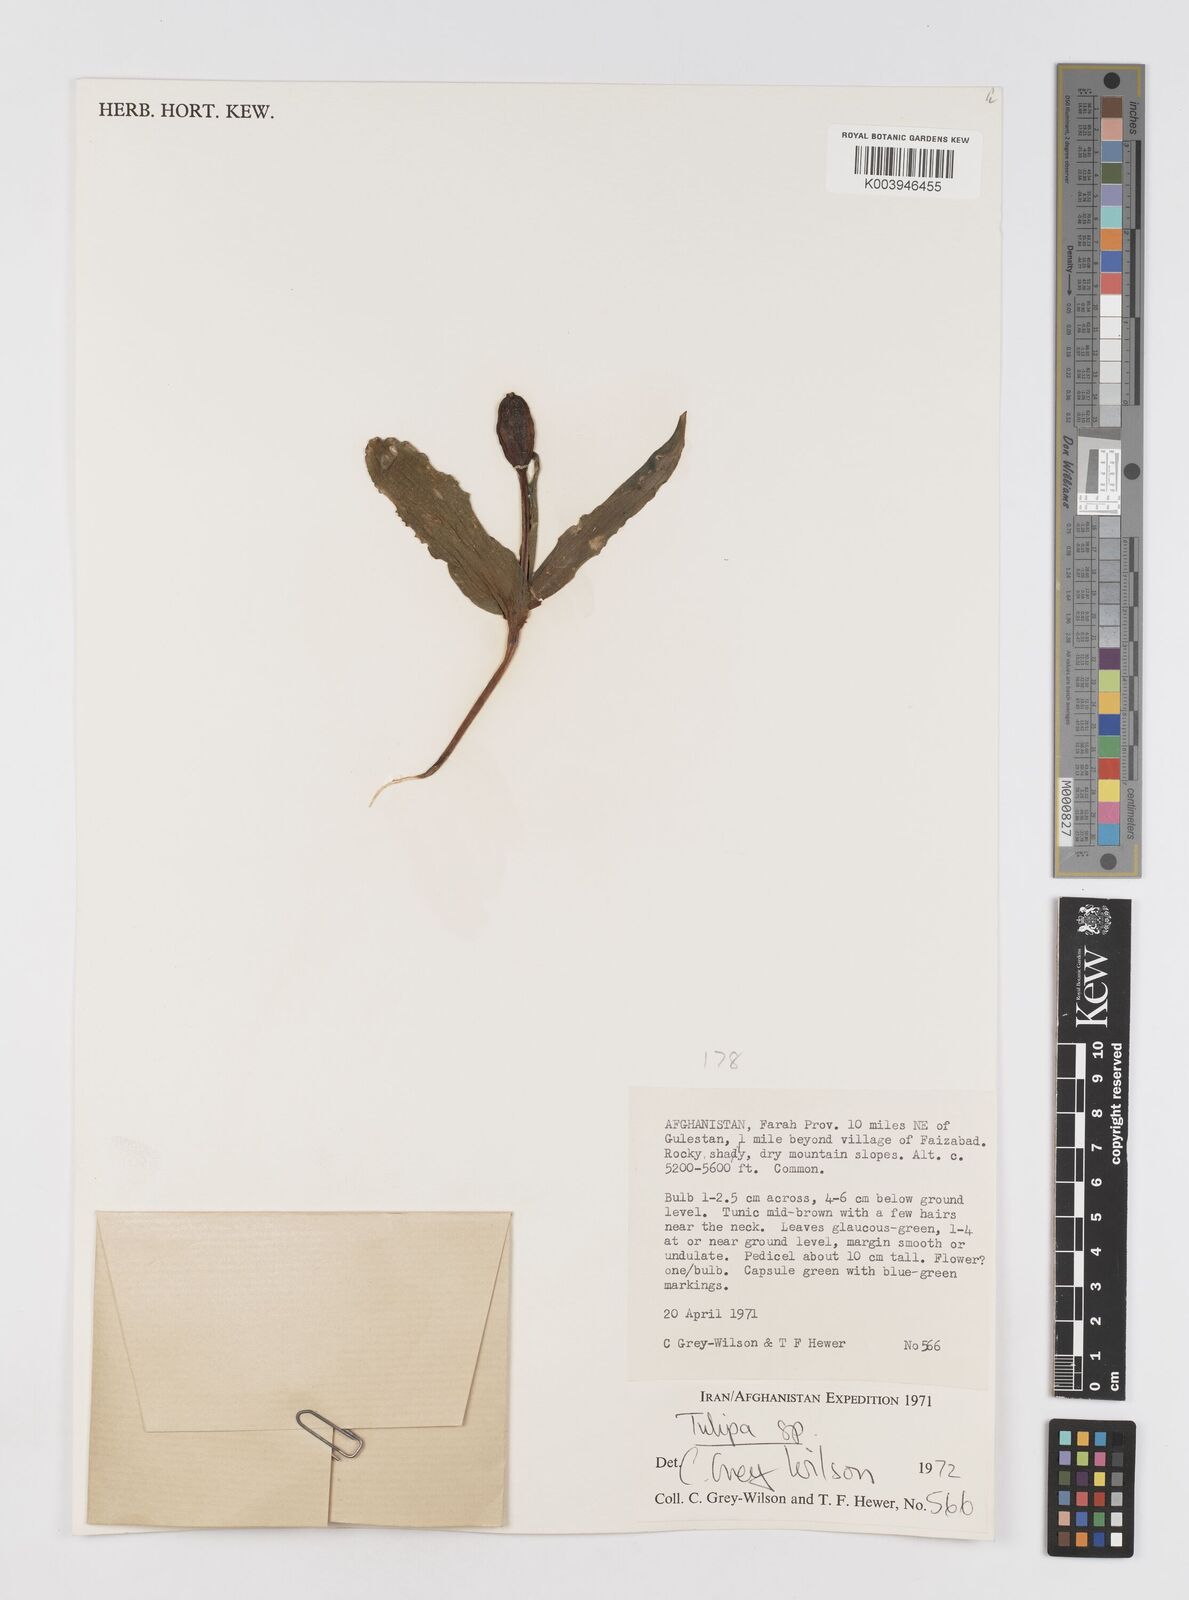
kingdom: Plantae
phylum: Tracheophyta
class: Liliopsida
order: Liliales
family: Liliaceae
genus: Tulipa
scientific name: Tulipa
